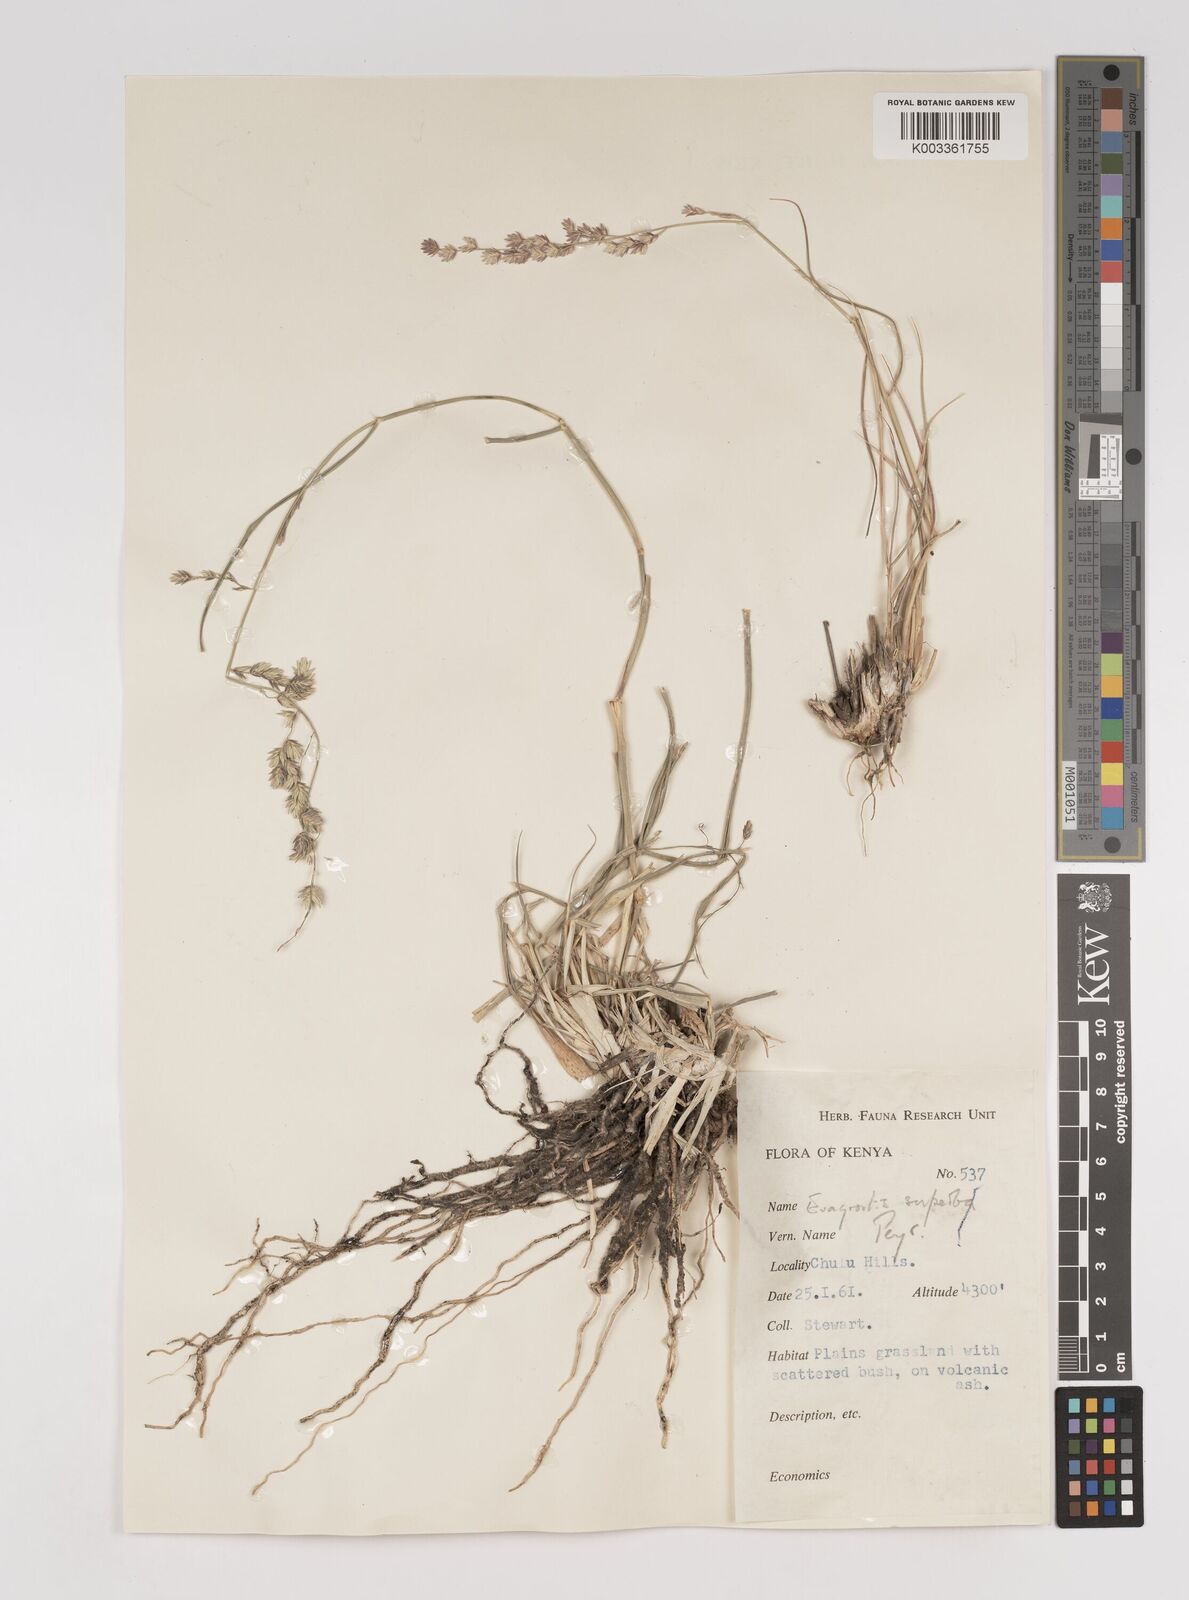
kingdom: Plantae
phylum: Tracheophyta
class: Liliopsida
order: Poales
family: Poaceae
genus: Eragrostis
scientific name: Eragrostis superba
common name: Wilman lovegrass
